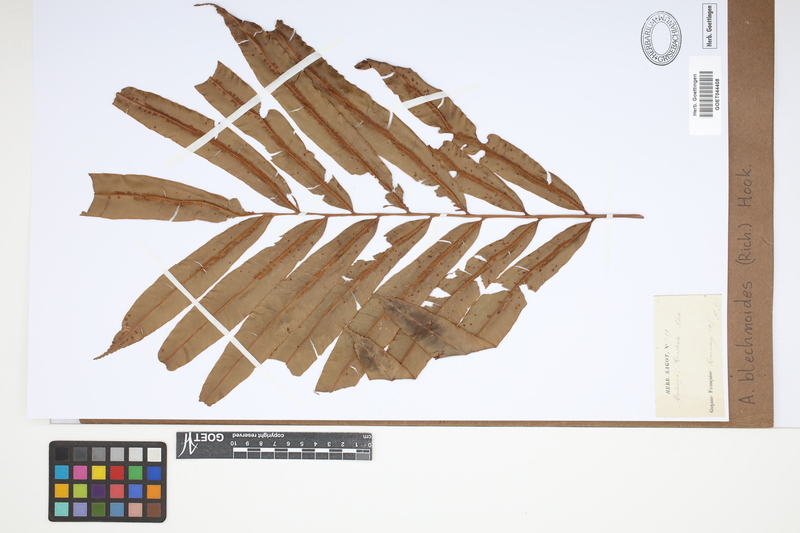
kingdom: Plantae
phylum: Tracheophyta
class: Polypodiopsida
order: Cyatheales
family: Metaxyaceae
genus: Metaxya
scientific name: Metaxya rostrata
